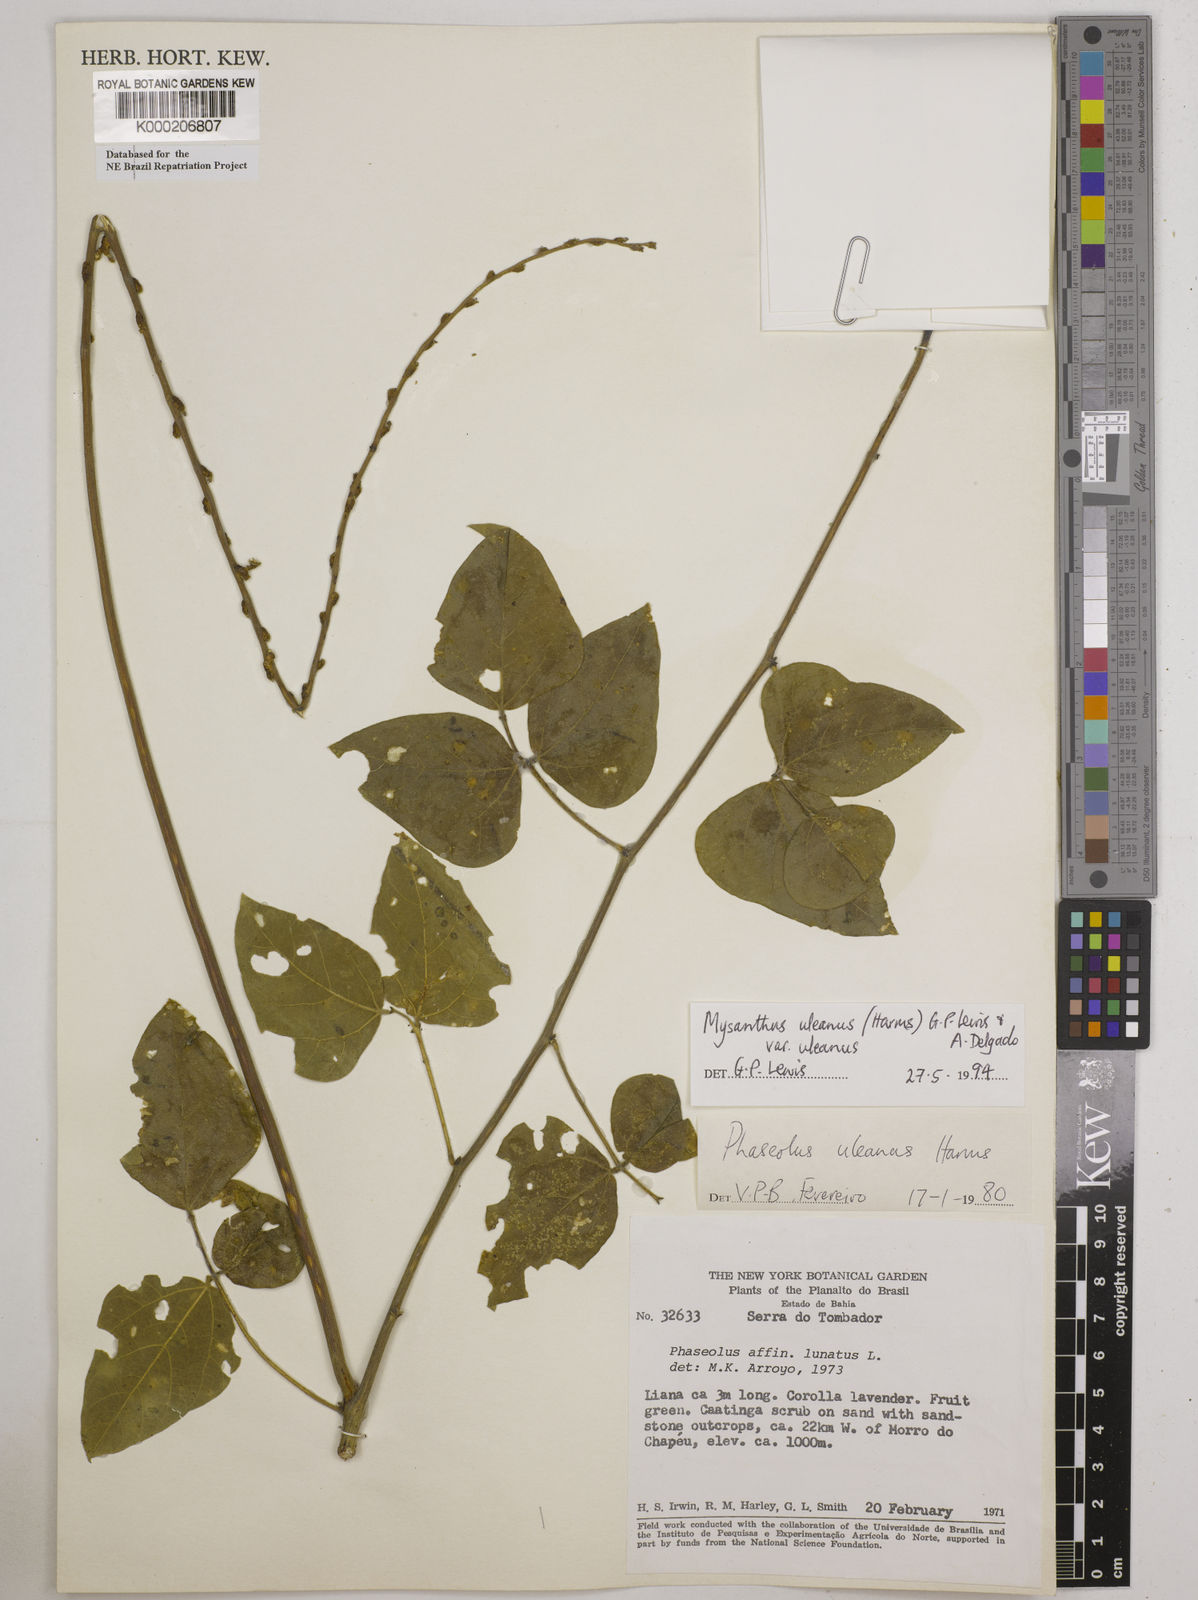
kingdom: Plantae
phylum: Tracheophyta
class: Magnoliopsida
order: Fabales
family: Fabaceae
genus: Mysanthus
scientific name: Mysanthus uleanus
